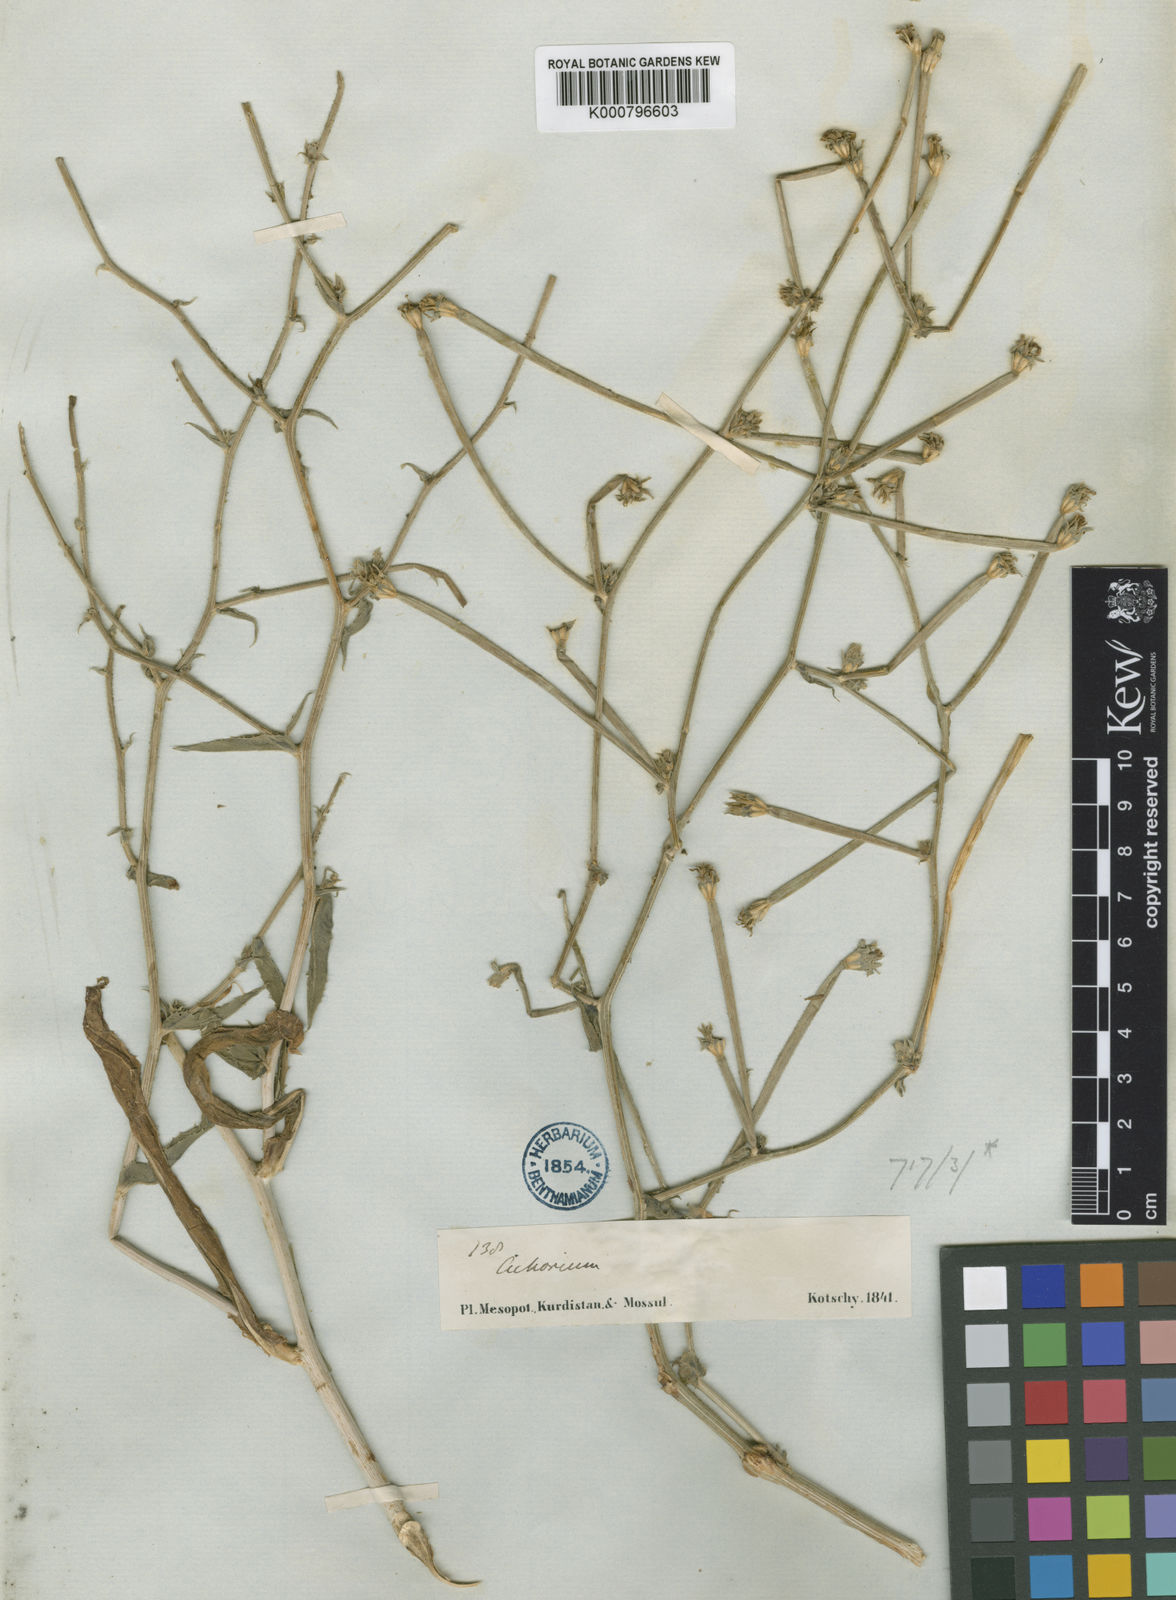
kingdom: Plantae
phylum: Tracheophyta
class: Magnoliopsida
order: Asterales
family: Asteraceae
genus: Cichorium
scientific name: Cichorium glandulosum
